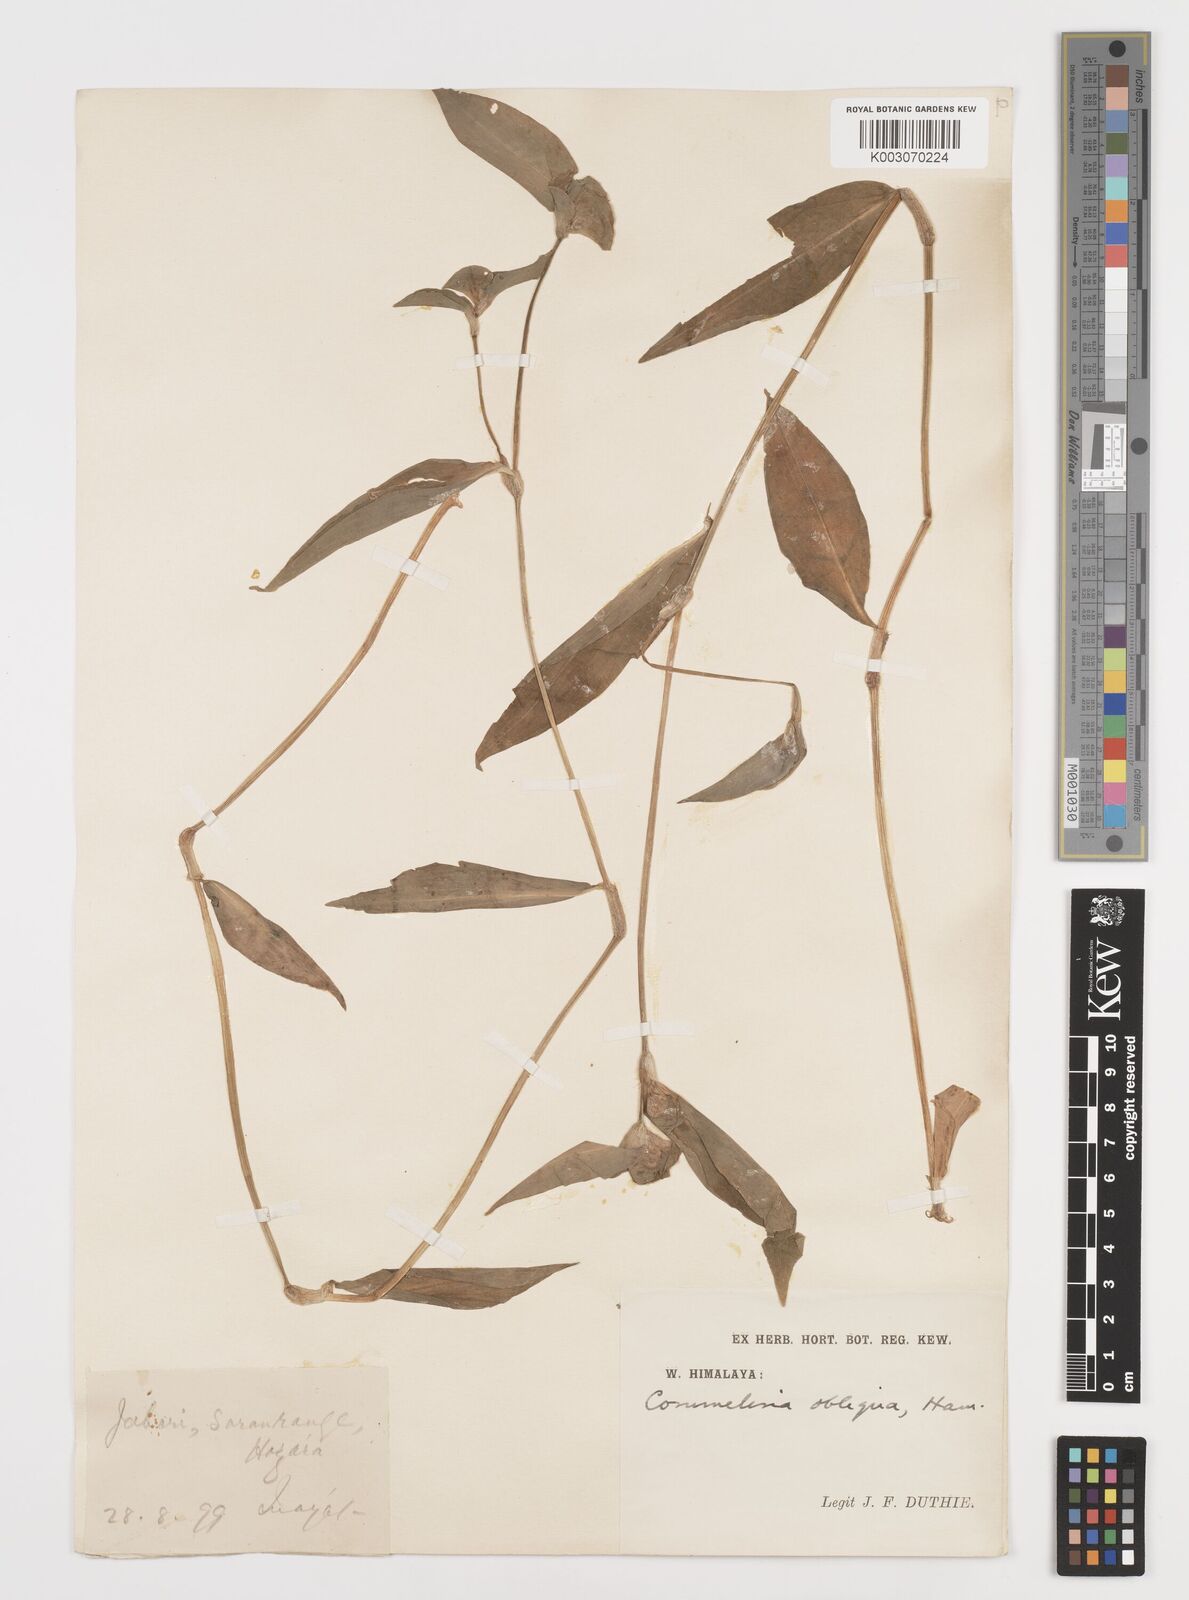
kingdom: Plantae
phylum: Tracheophyta
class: Liliopsida
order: Commelinales
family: Commelinaceae
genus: Commelina
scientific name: Commelina paludosa
